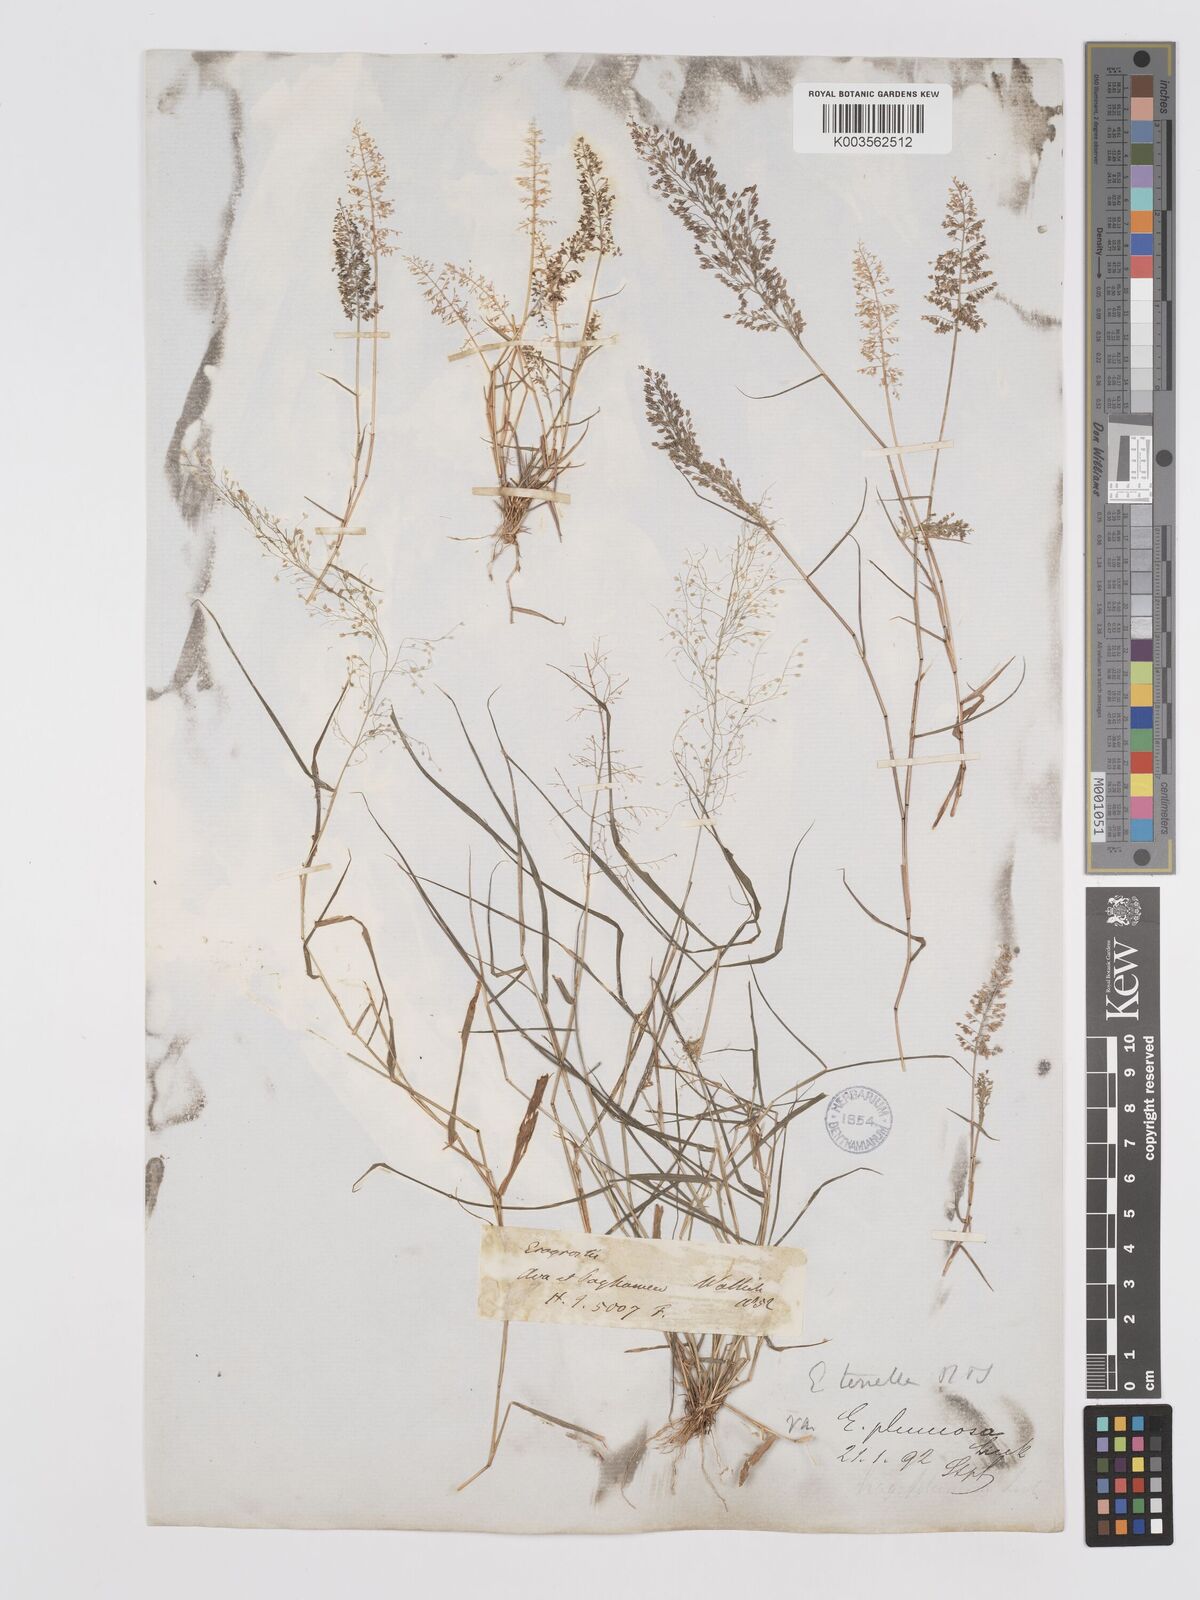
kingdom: Plantae
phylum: Tracheophyta
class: Liliopsida
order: Poales
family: Poaceae
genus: Eragrostis
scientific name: Eragrostis tenella
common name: Japanese lovegrass
